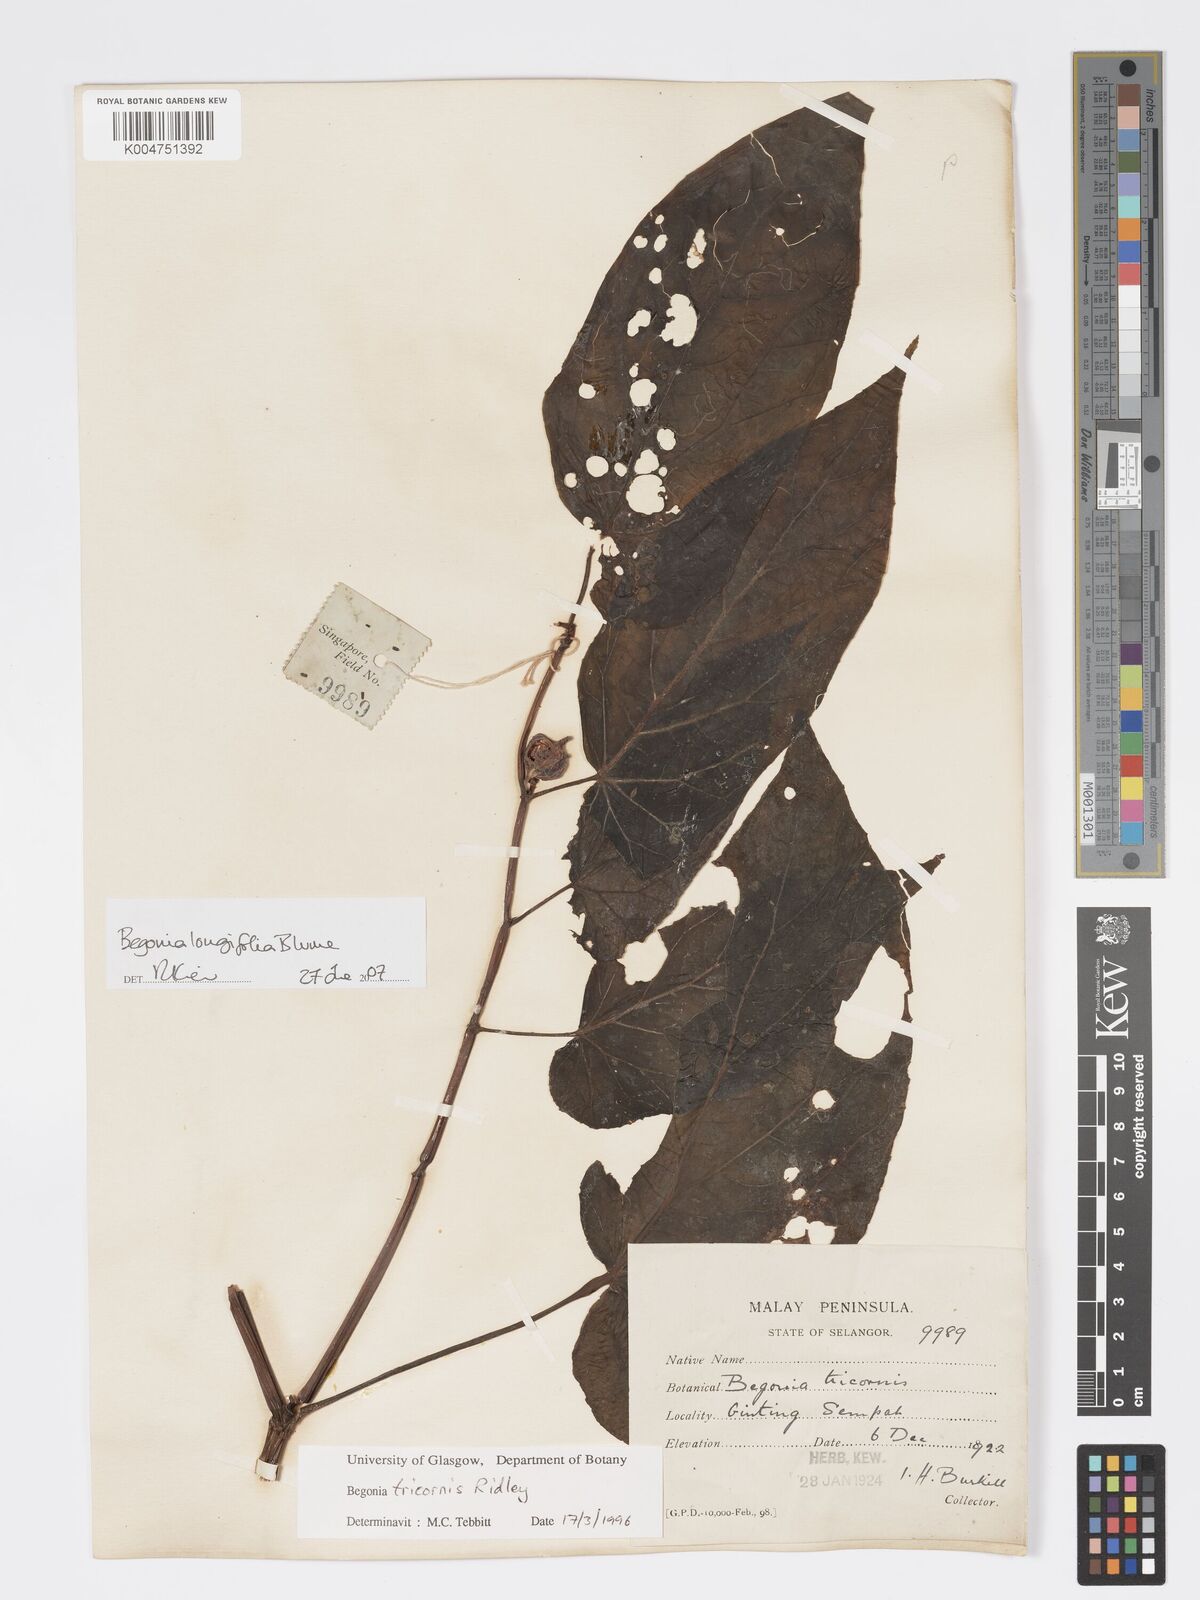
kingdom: Plantae
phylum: Tracheophyta
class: Magnoliopsida
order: Cucurbitales
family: Begoniaceae
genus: Begonia
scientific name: Begonia longifolia
